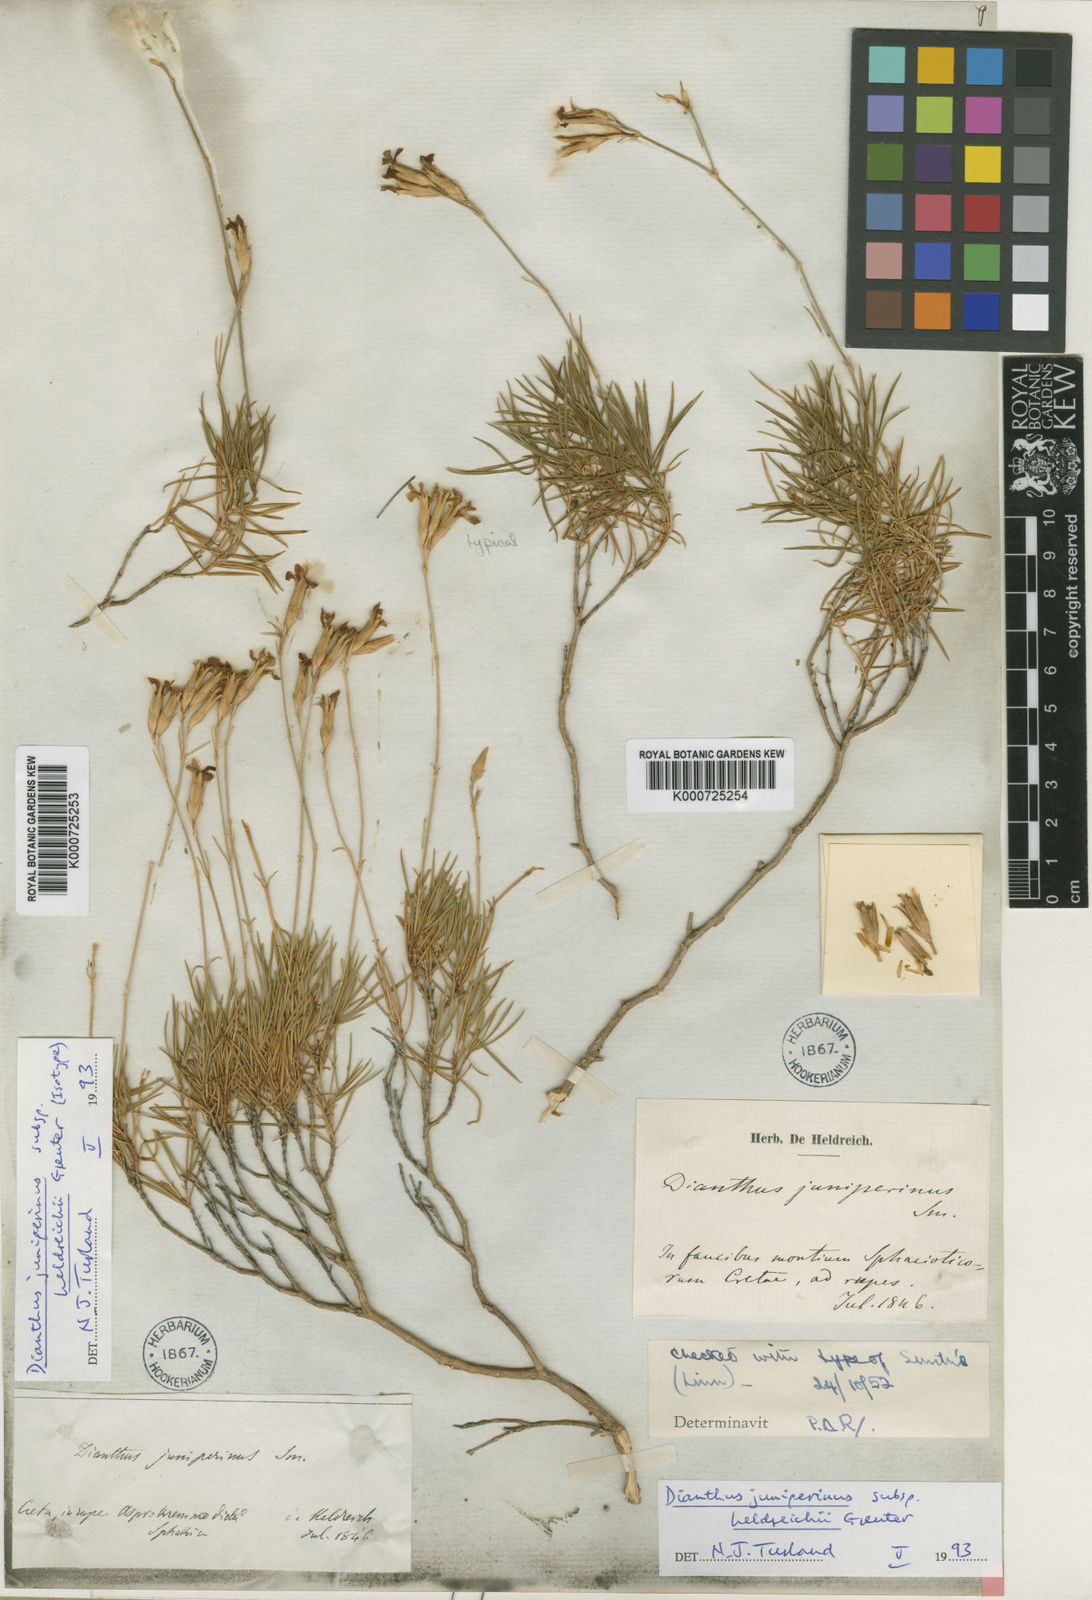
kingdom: Plantae
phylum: Tracheophyta
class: Magnoliopsida
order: Caryophyllales
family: Caryophyllaceae
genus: Dianthus
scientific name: Dianthus juniperinus
